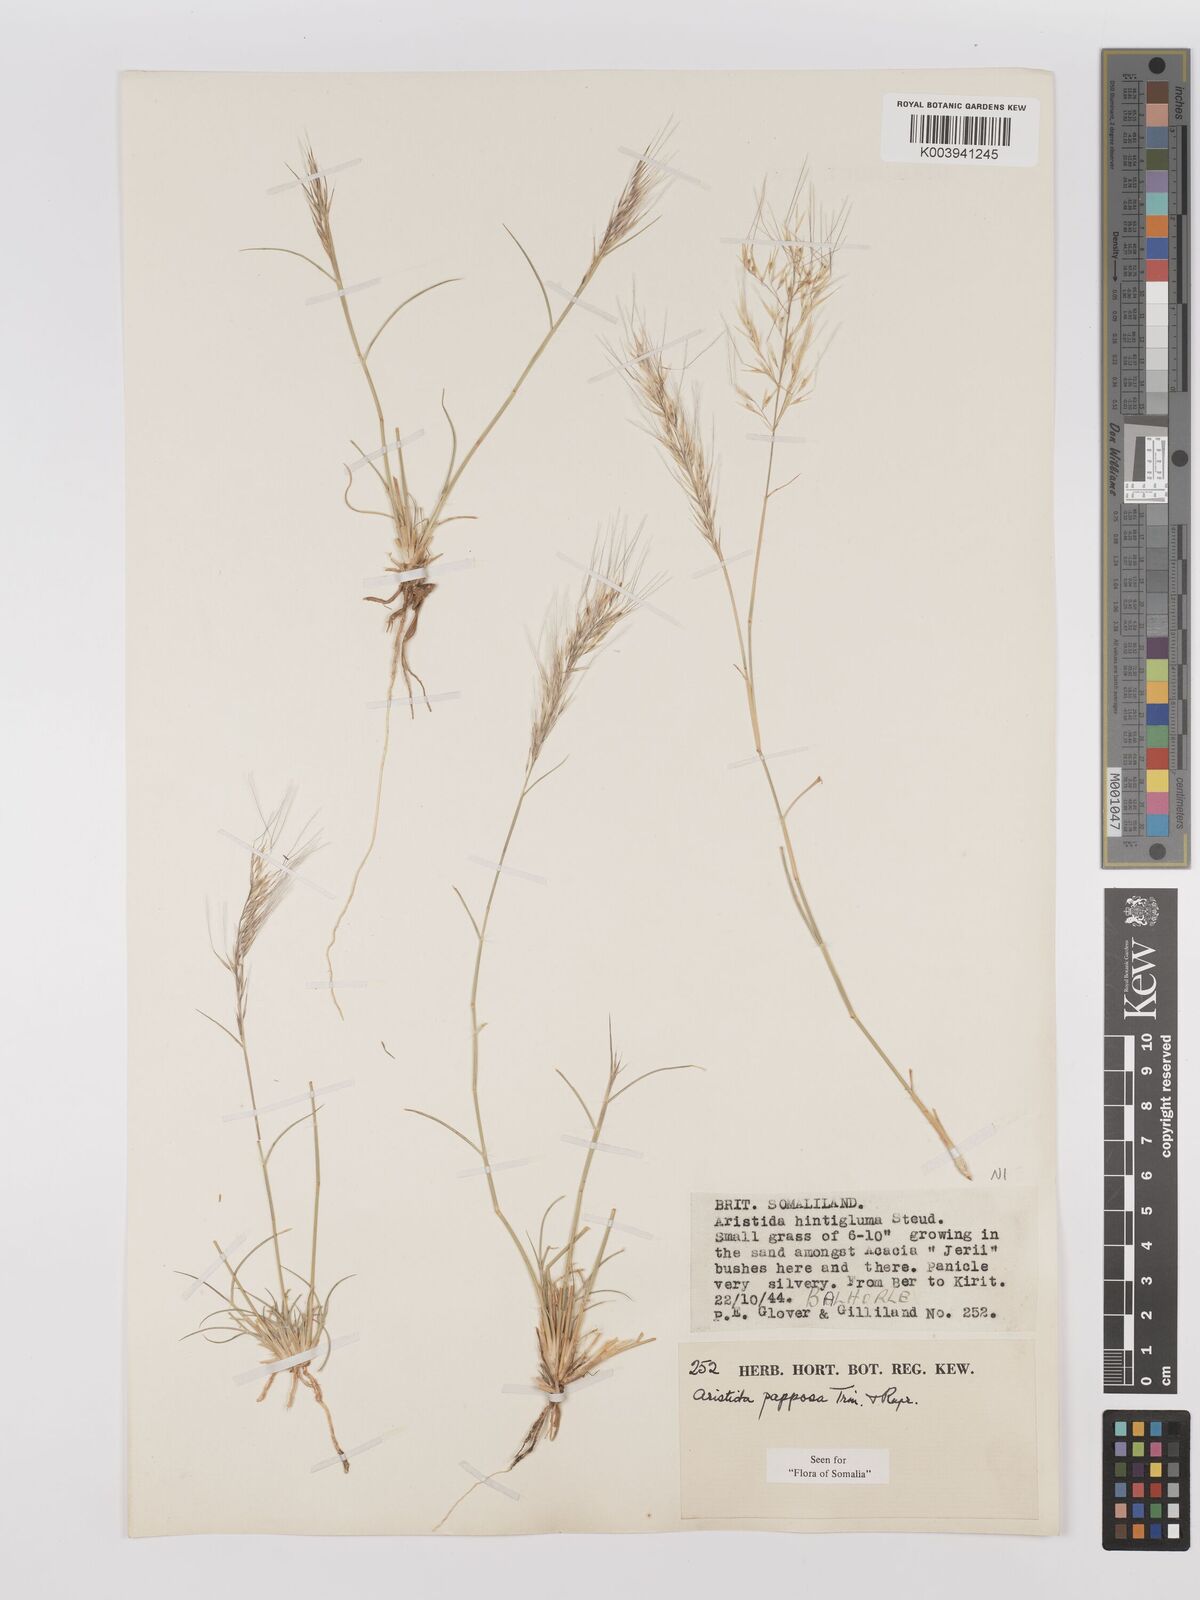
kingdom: Plantae
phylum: Tracheophyta
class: Liliopsida
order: Poales
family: Poaceae
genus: Stipagrostis
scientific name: Stipagrostis uniplumis
